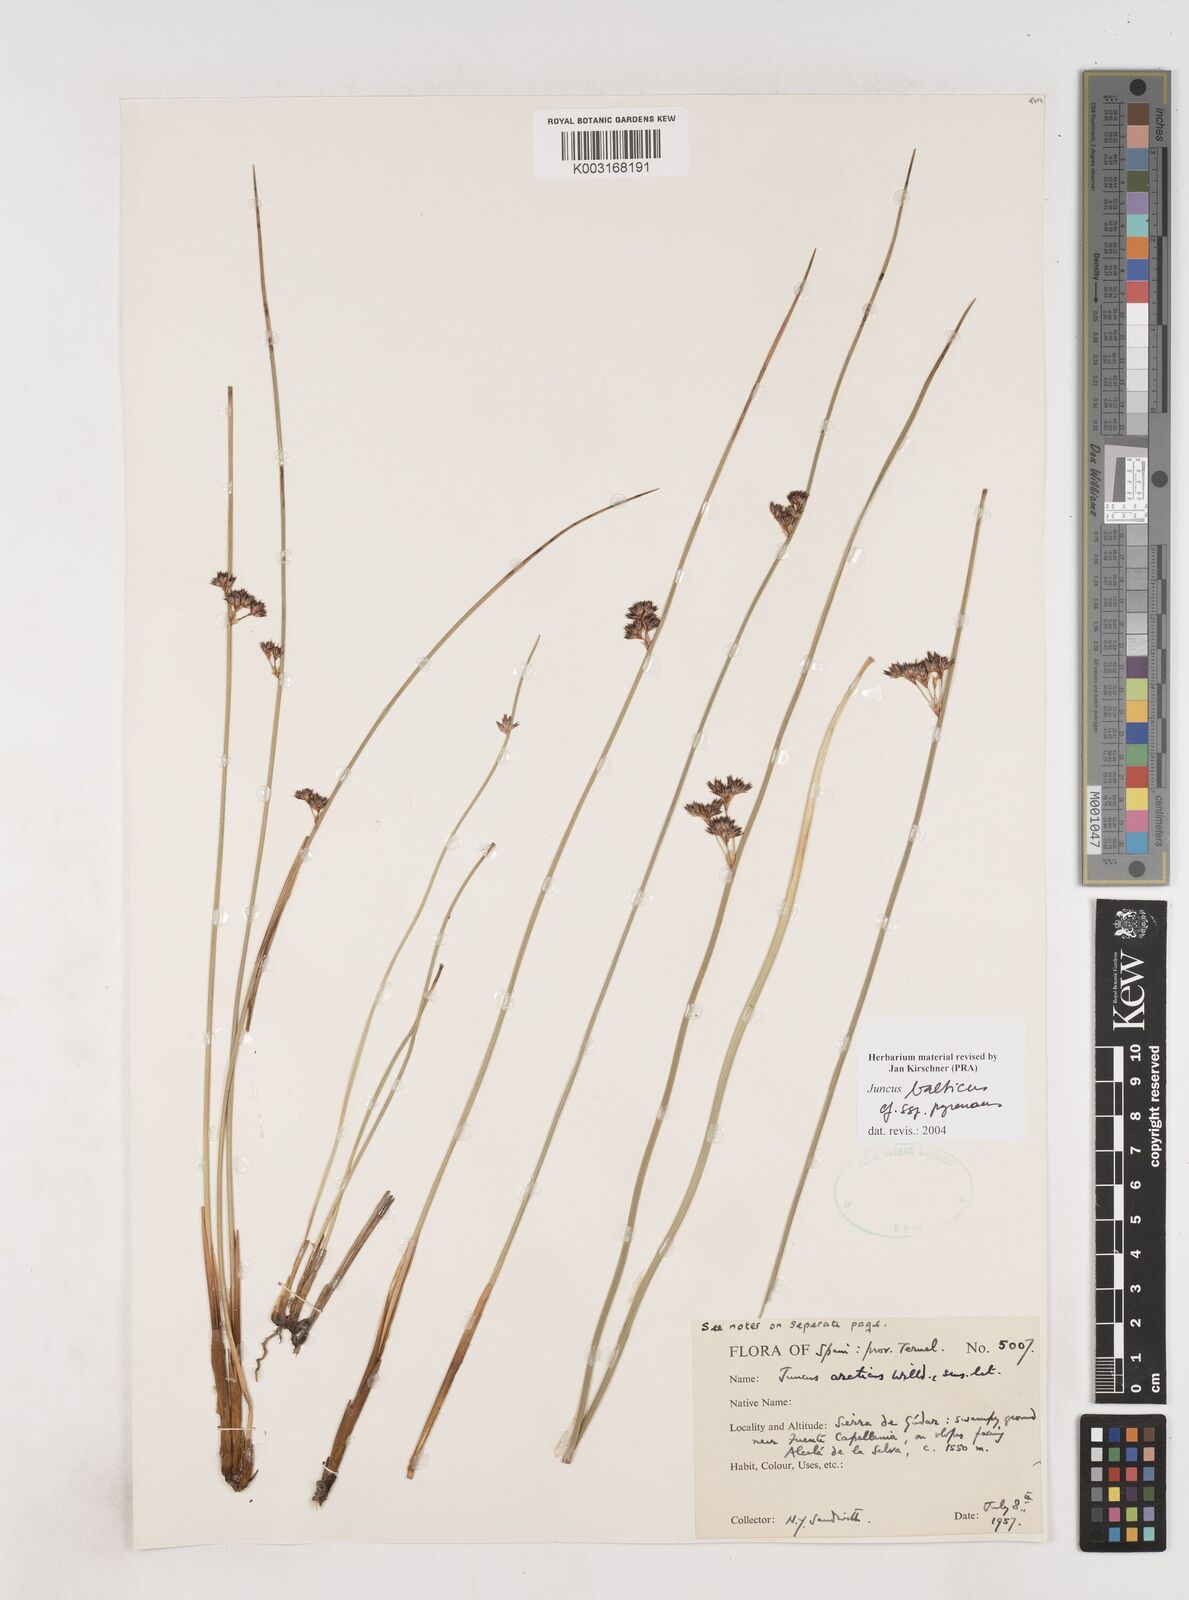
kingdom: Plantae
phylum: Tracheophyta
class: Liliopsida
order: Poales
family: Juncaceae
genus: Juncus
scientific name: Juncus balticus
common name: Baltic rush
